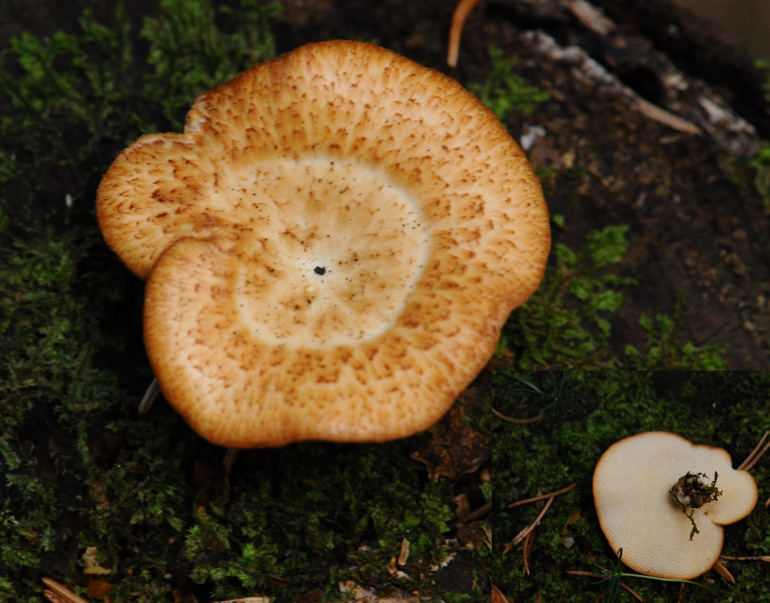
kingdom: Fungi
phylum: Basidiomycota
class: Agaricomycetes
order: Polyporales
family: Polyporaceae
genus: Polyporus
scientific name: Polyporus tuberaster
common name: knoldet stilkporesvamp
